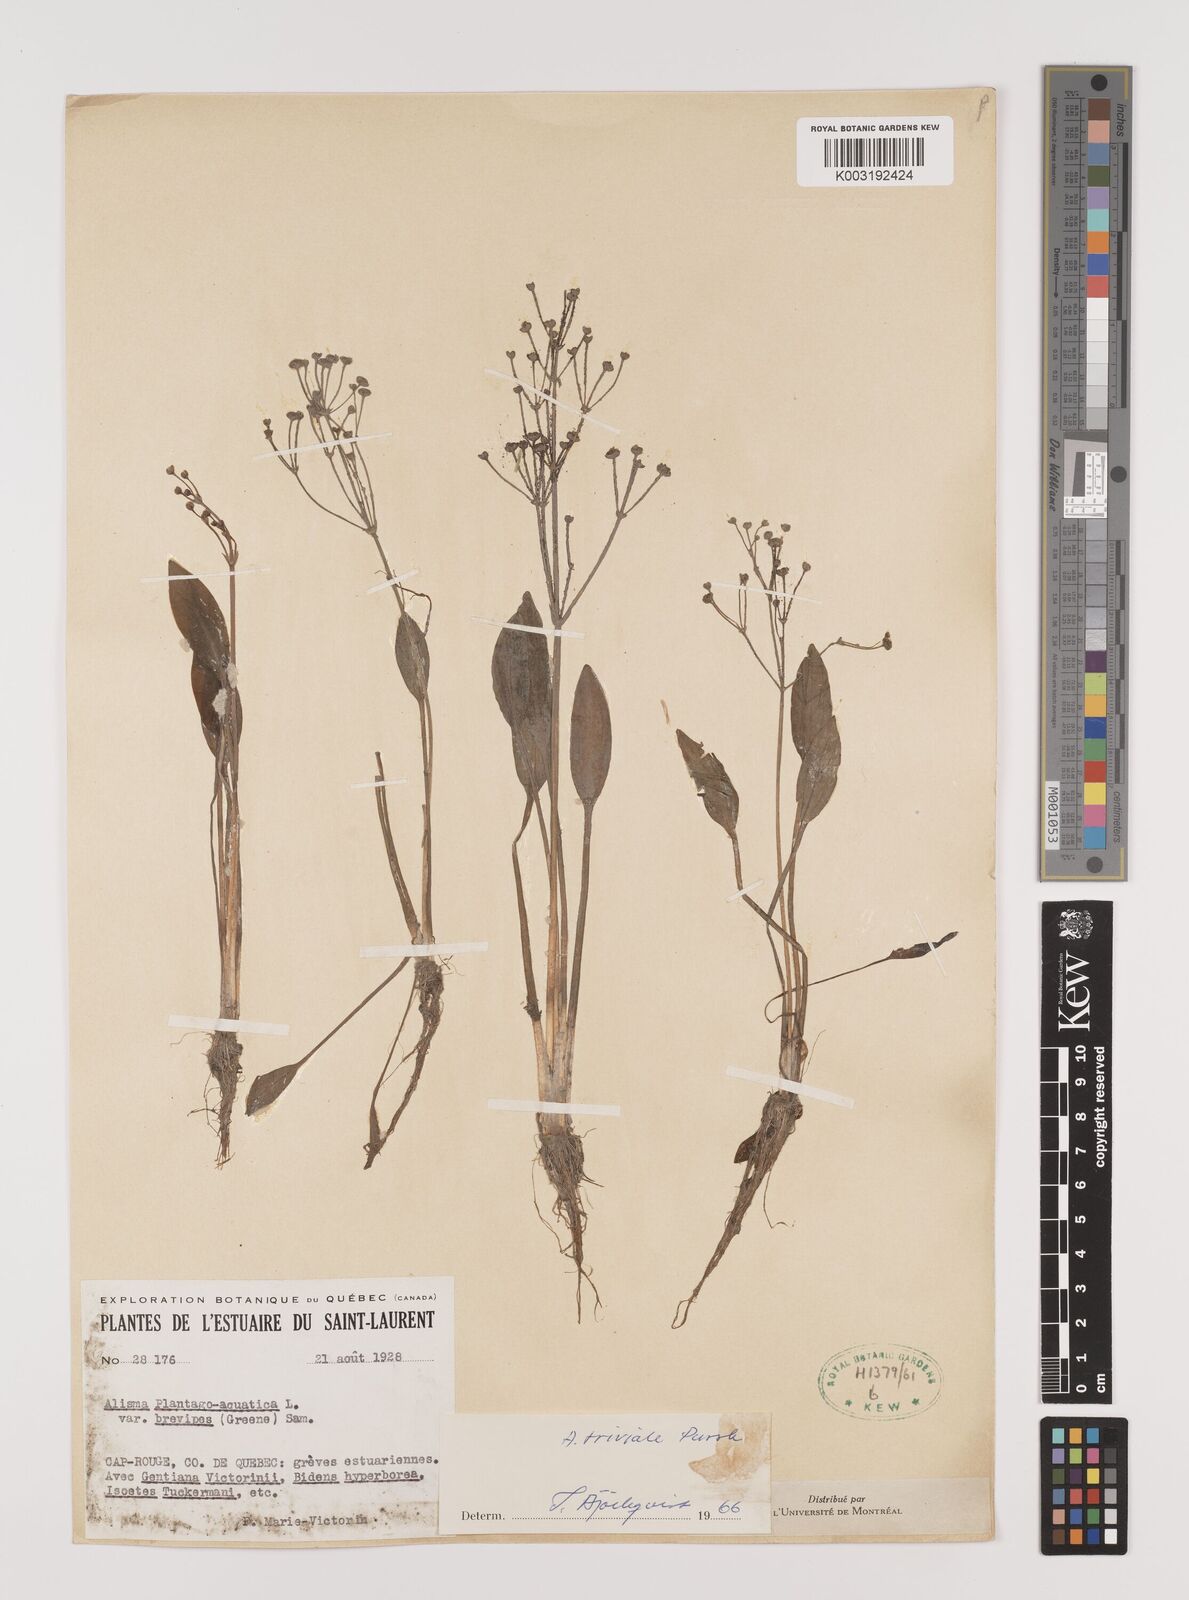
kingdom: Plantae
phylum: Tracheophyta
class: Liliopsida
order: Alismatales
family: Alismataceae
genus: Alisma
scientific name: Alisma triviale
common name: Northern water-plantain
